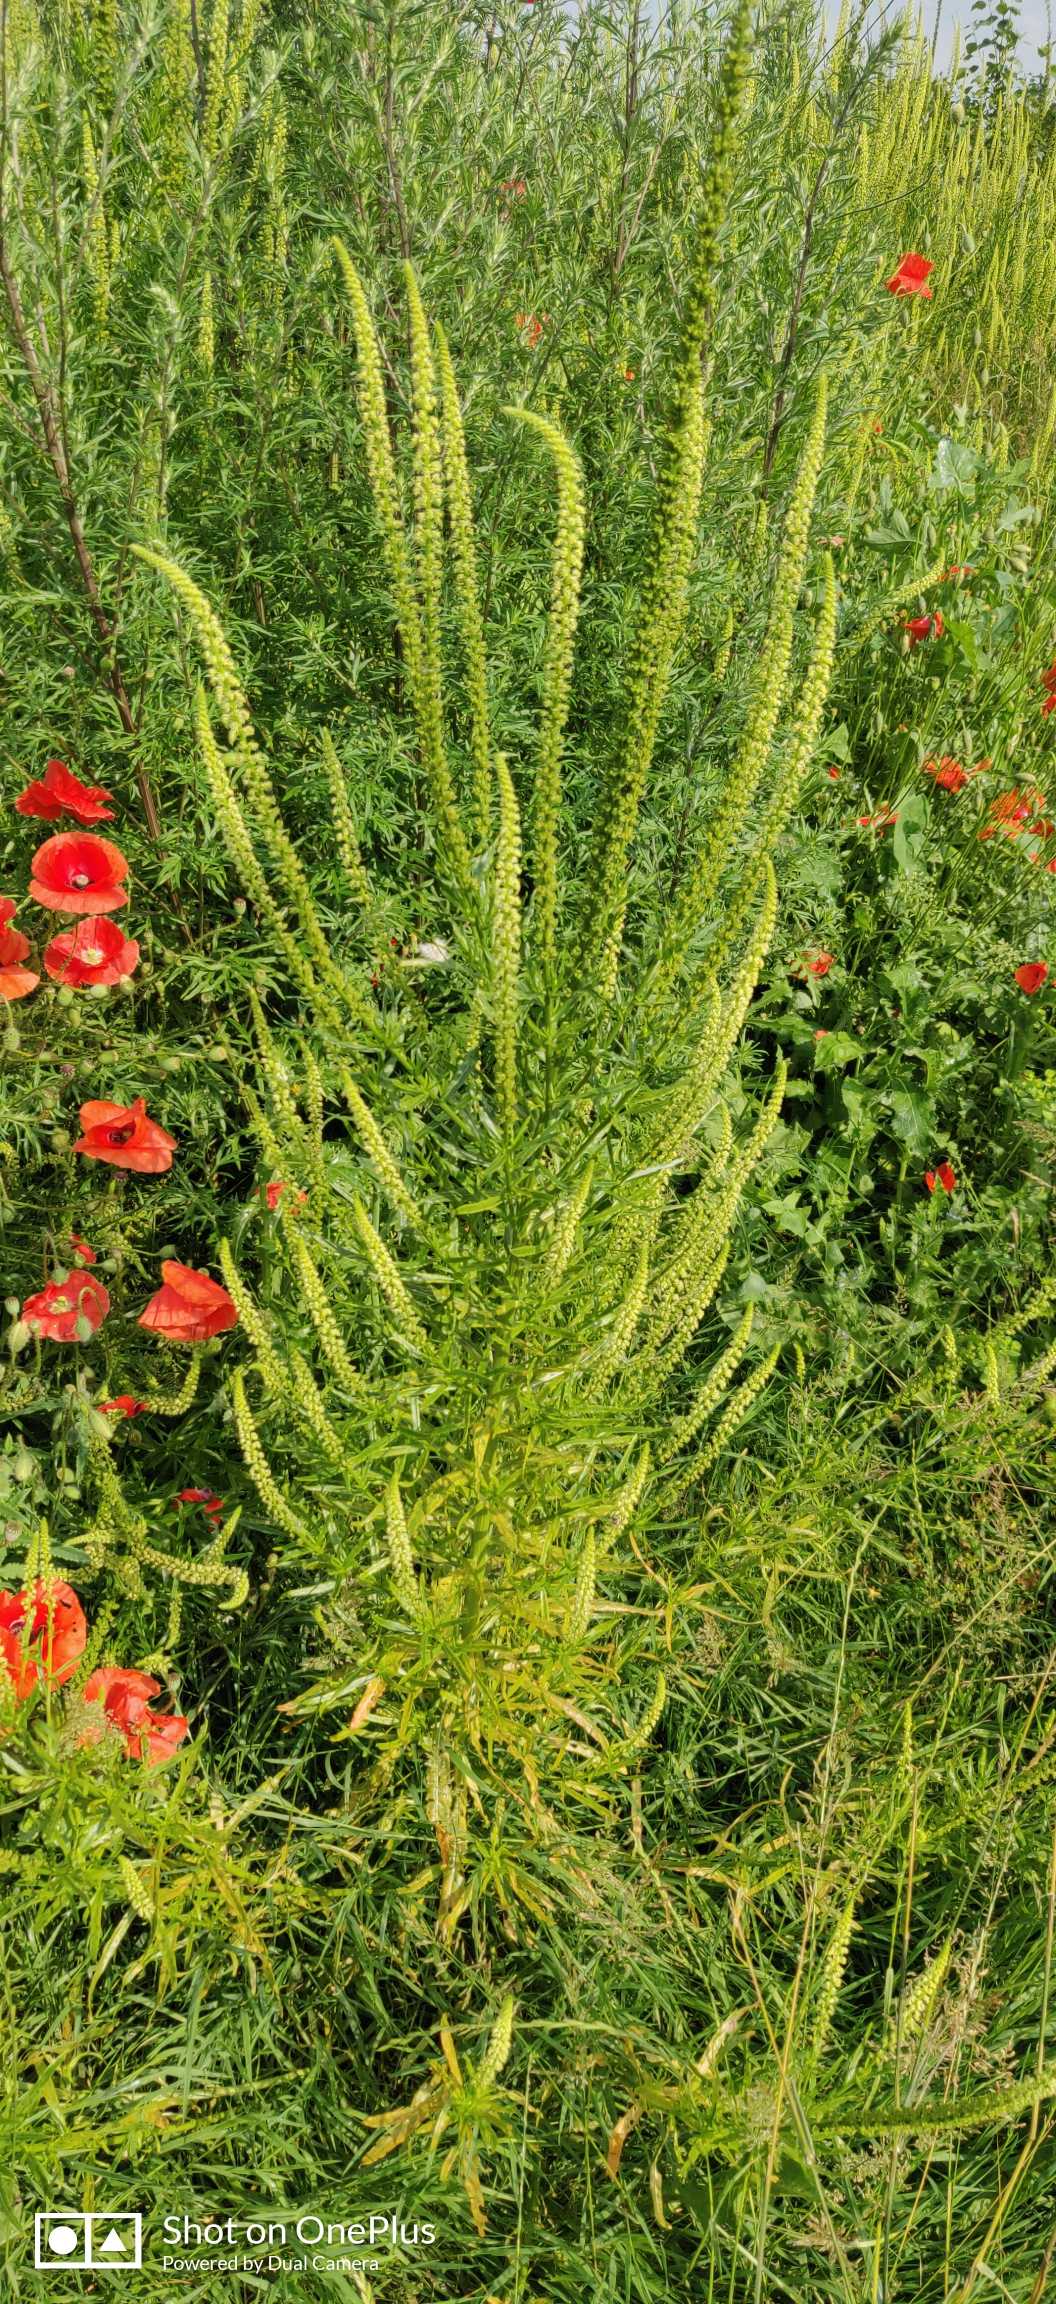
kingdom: Plantae
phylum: Tracheophyta
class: Magnoliopsida
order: Brassicales
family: Resedaceae
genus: Reseda
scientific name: Reseda luteola
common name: Farve-reseda
